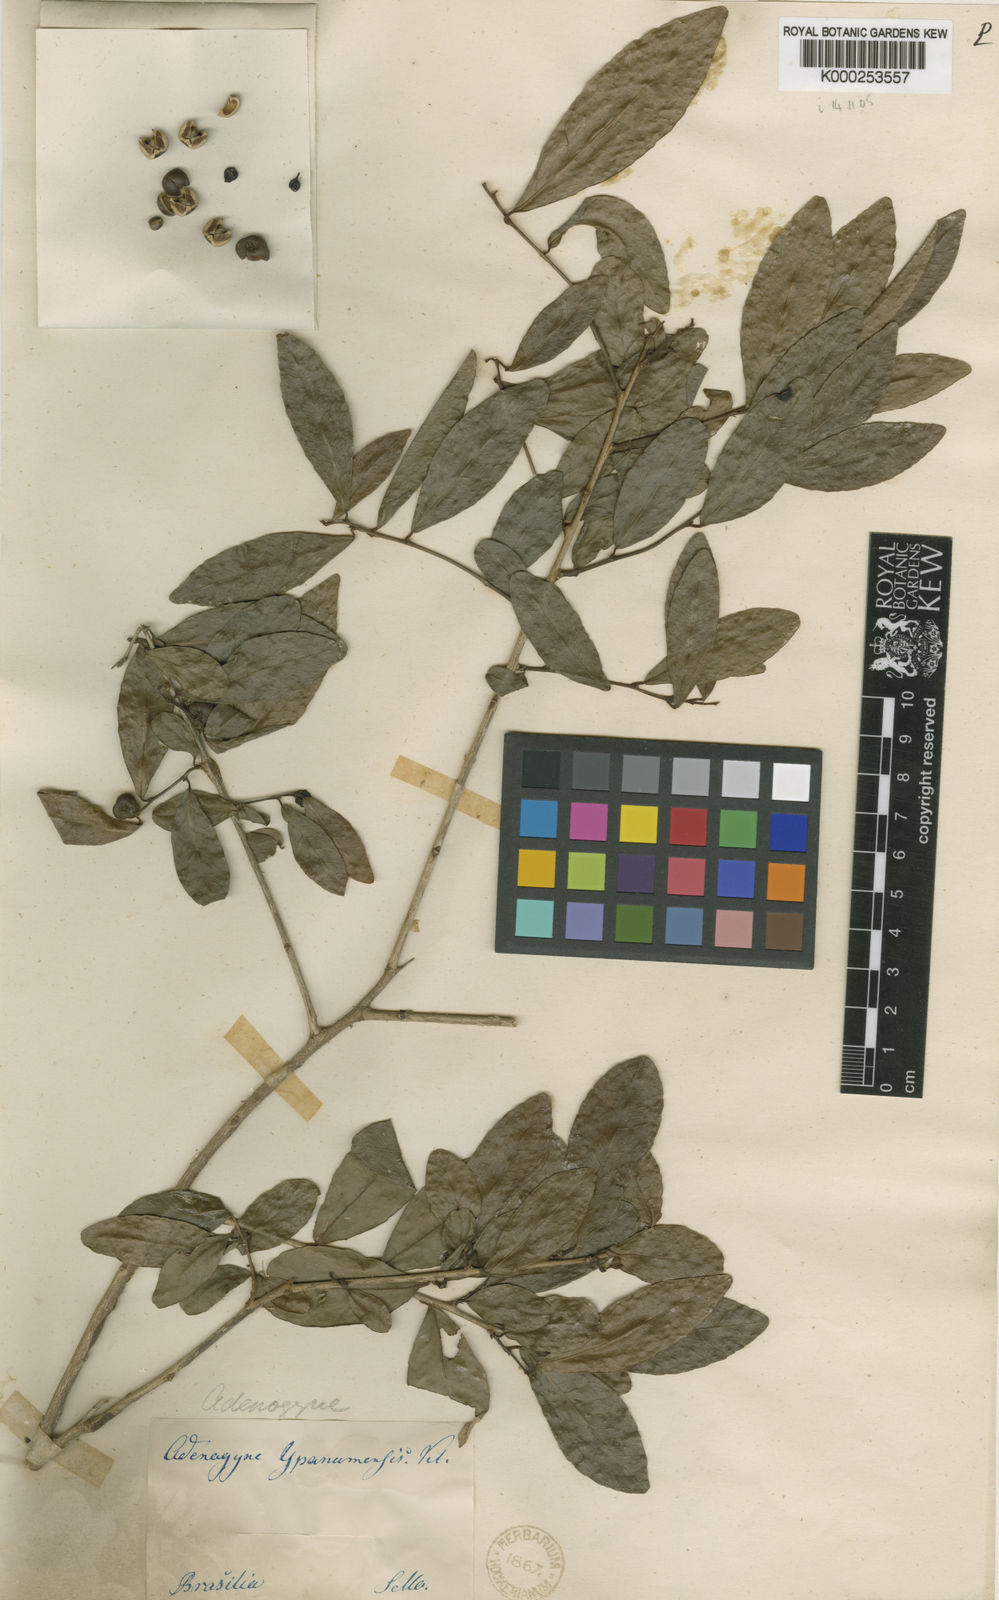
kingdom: Plantae
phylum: Tracheophyta
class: Magnoliopsida
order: Malpighiales
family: Euphorbiaceae
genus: Gymnanthes
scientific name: Gymnanthes
